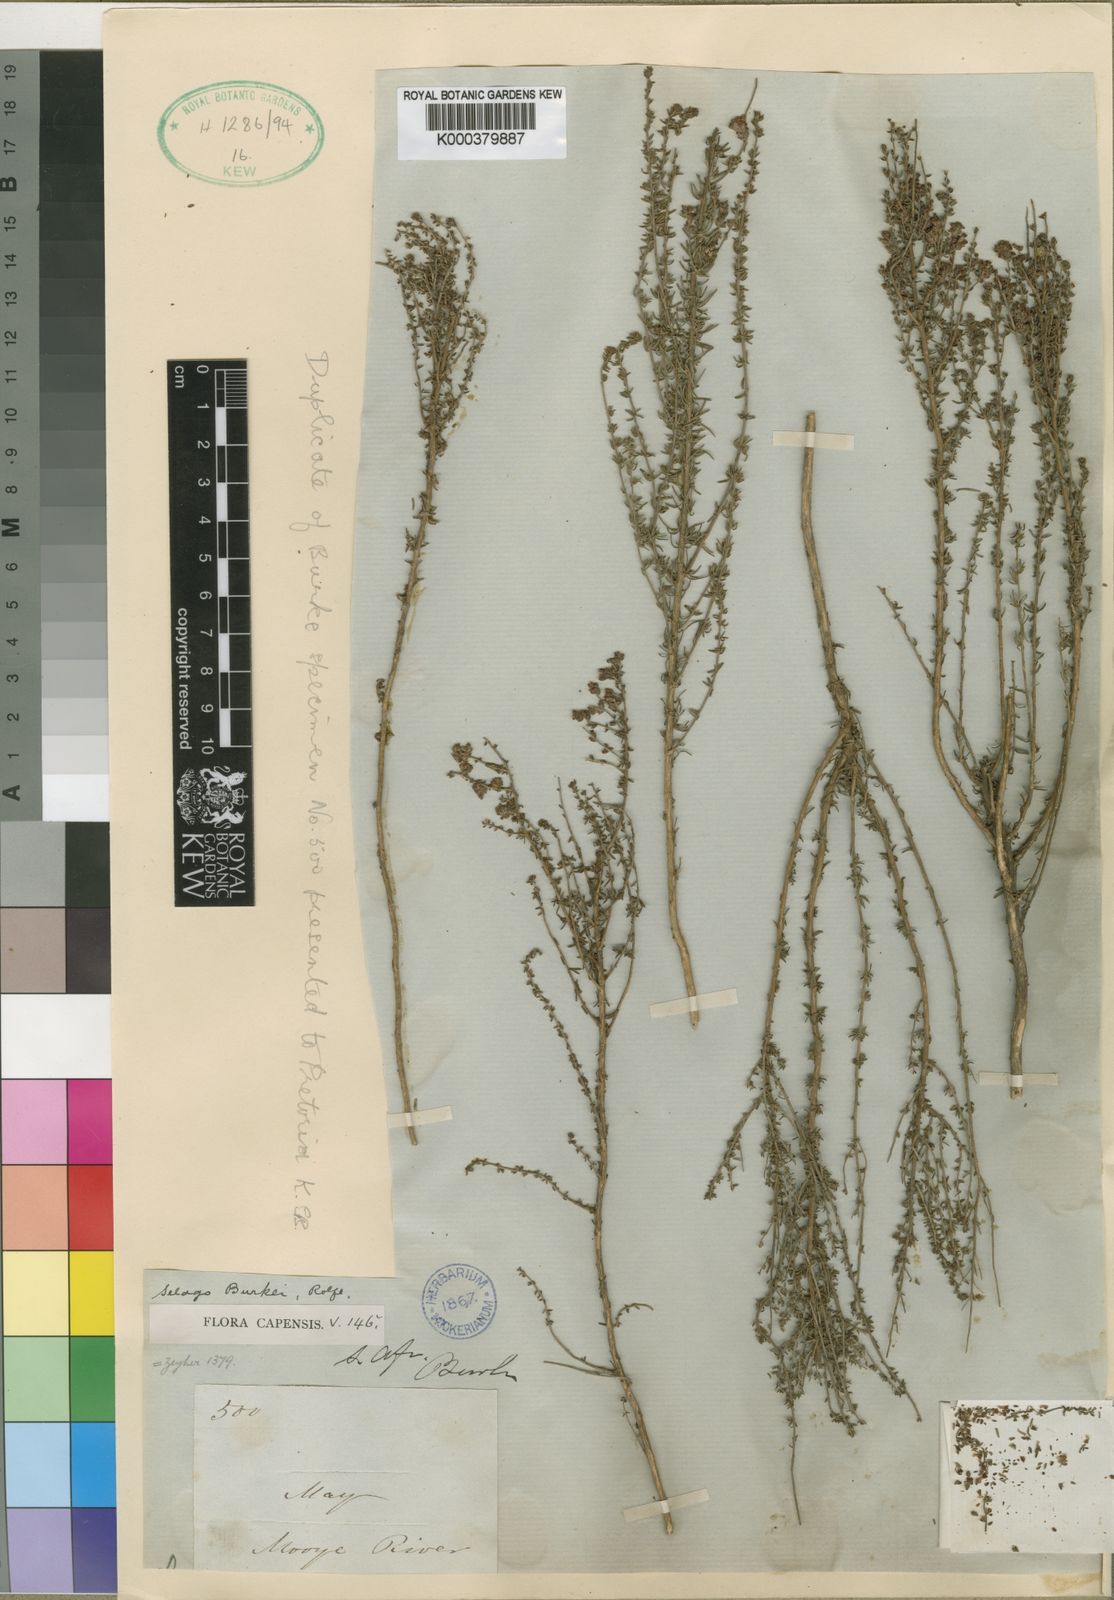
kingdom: Plantae
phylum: Tracheophyta
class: Magnoliopsida
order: Lamiales
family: Scrophulariaceae
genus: Selago
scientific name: Selago burkei
